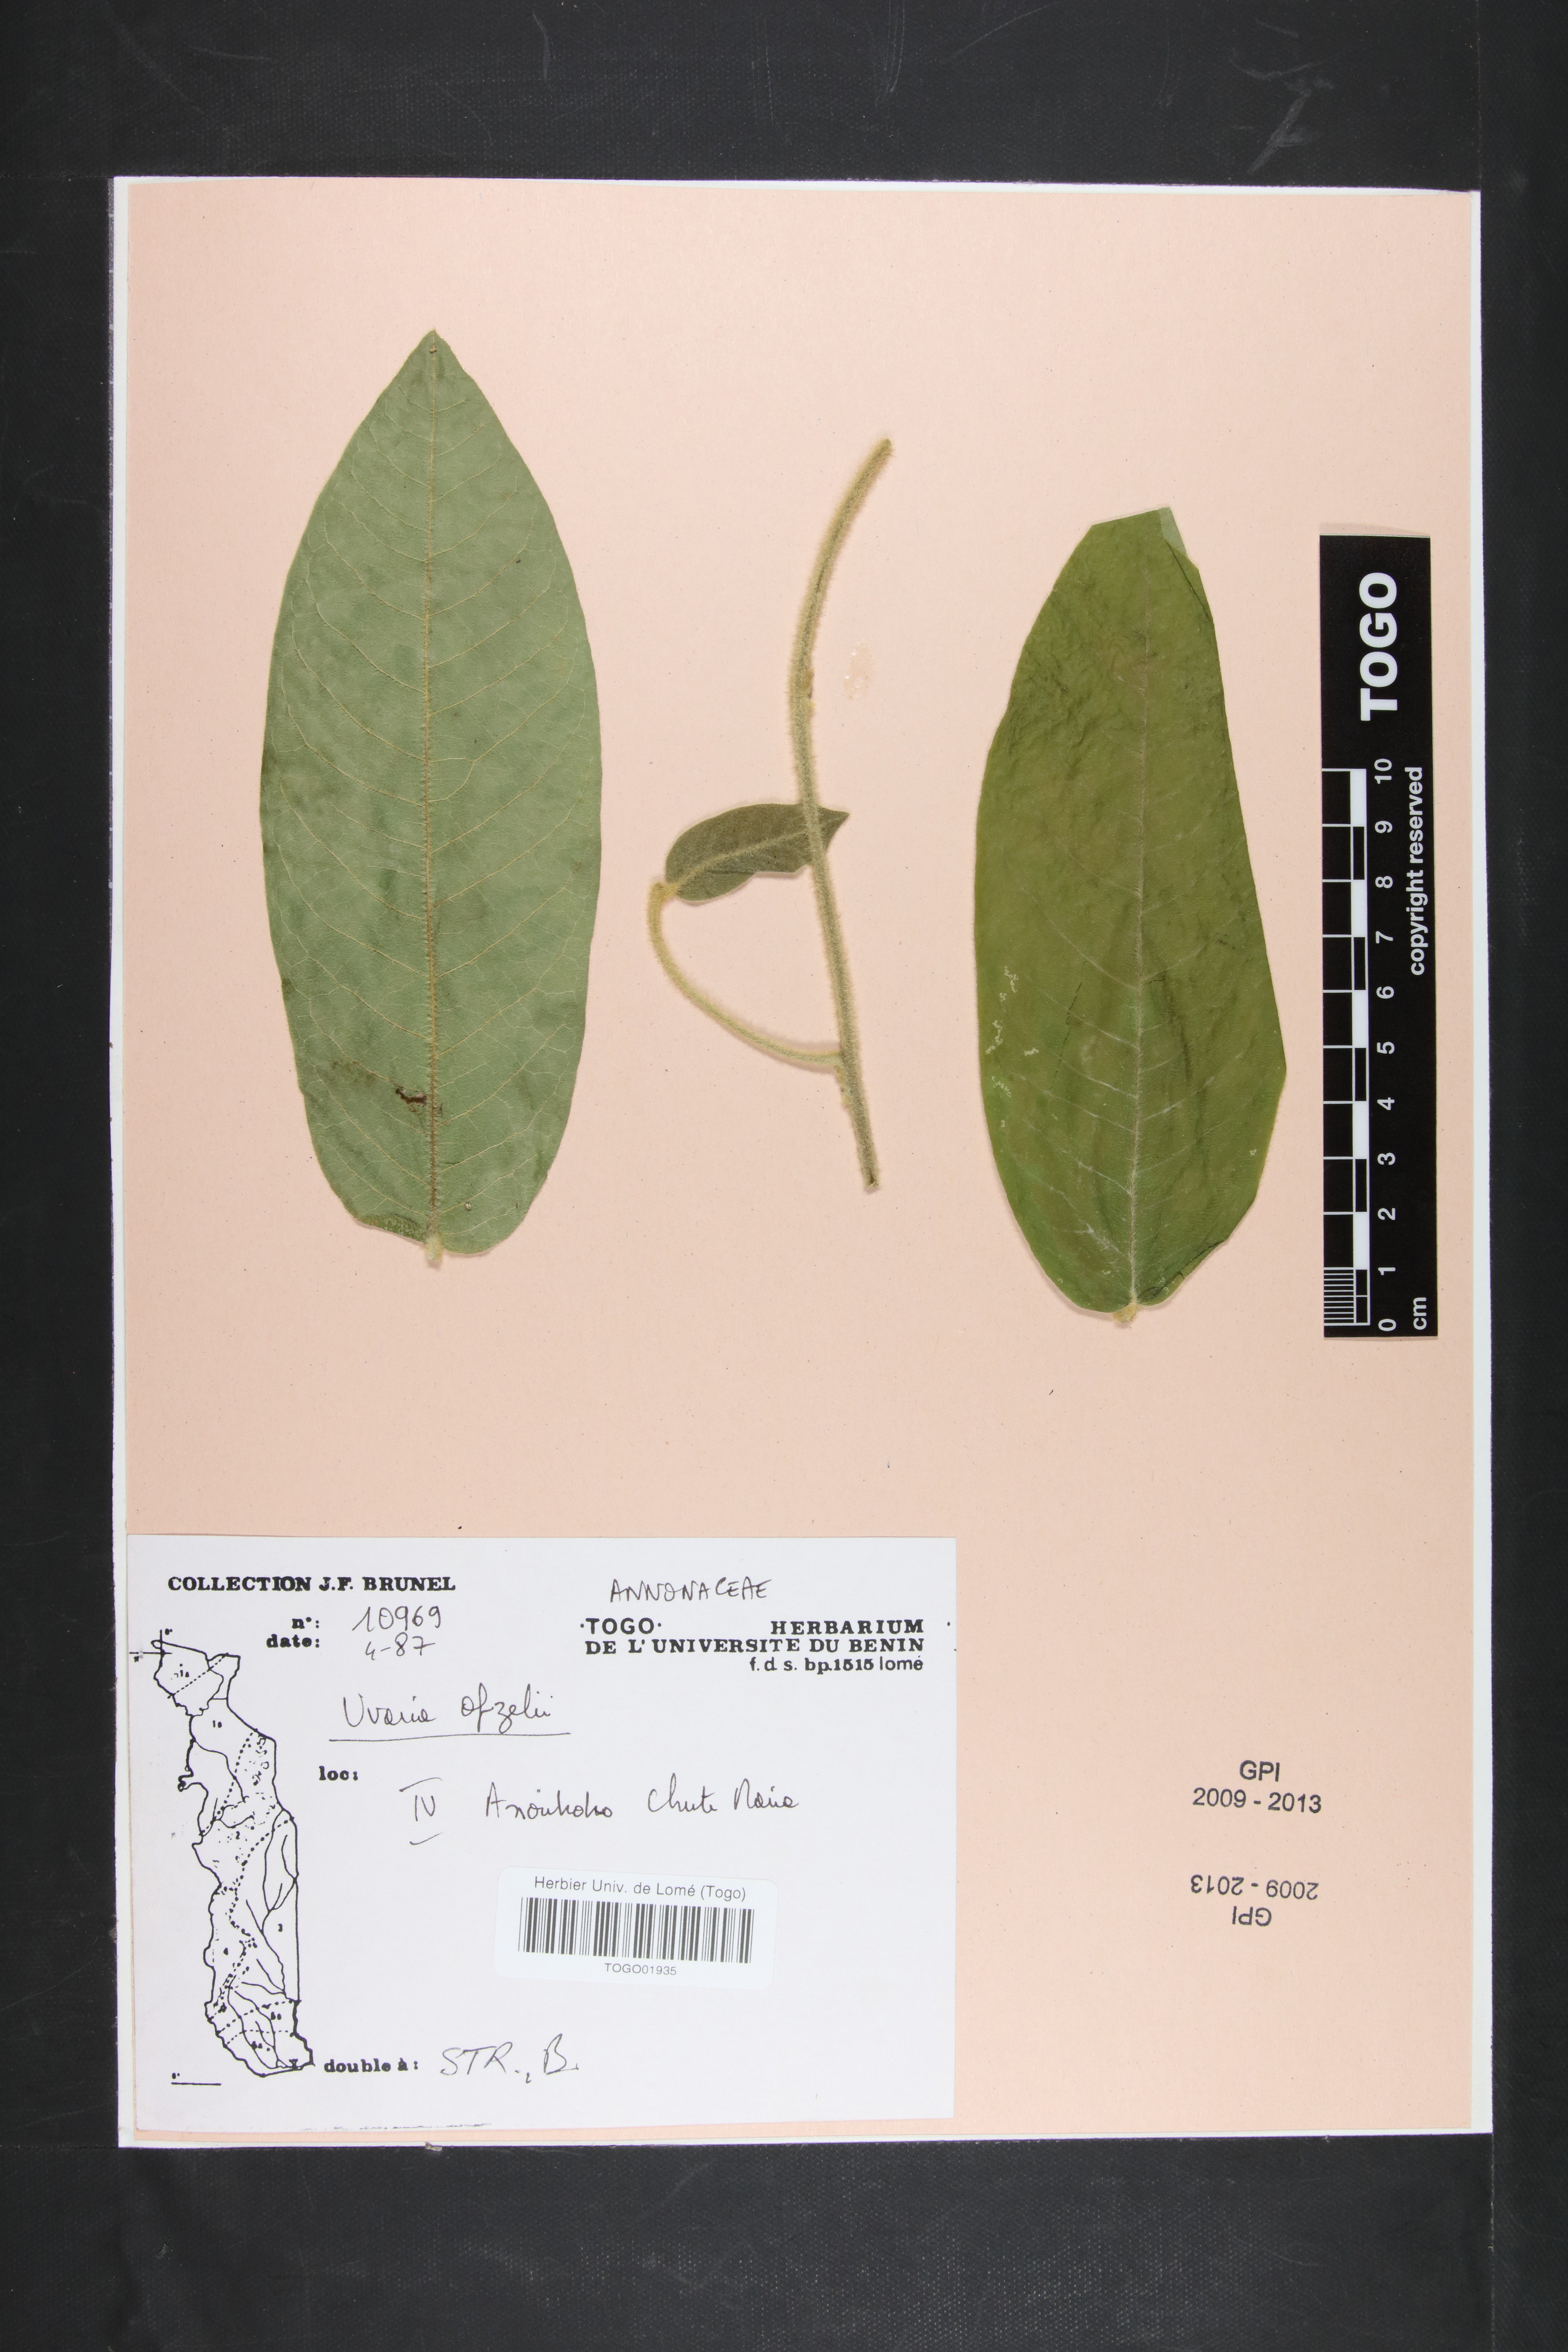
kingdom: Plantae
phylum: Tracheophyta
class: Magnoliopsida
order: Magnoliales
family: Annonaceae
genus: Uvaria
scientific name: Uvaria afzelii
